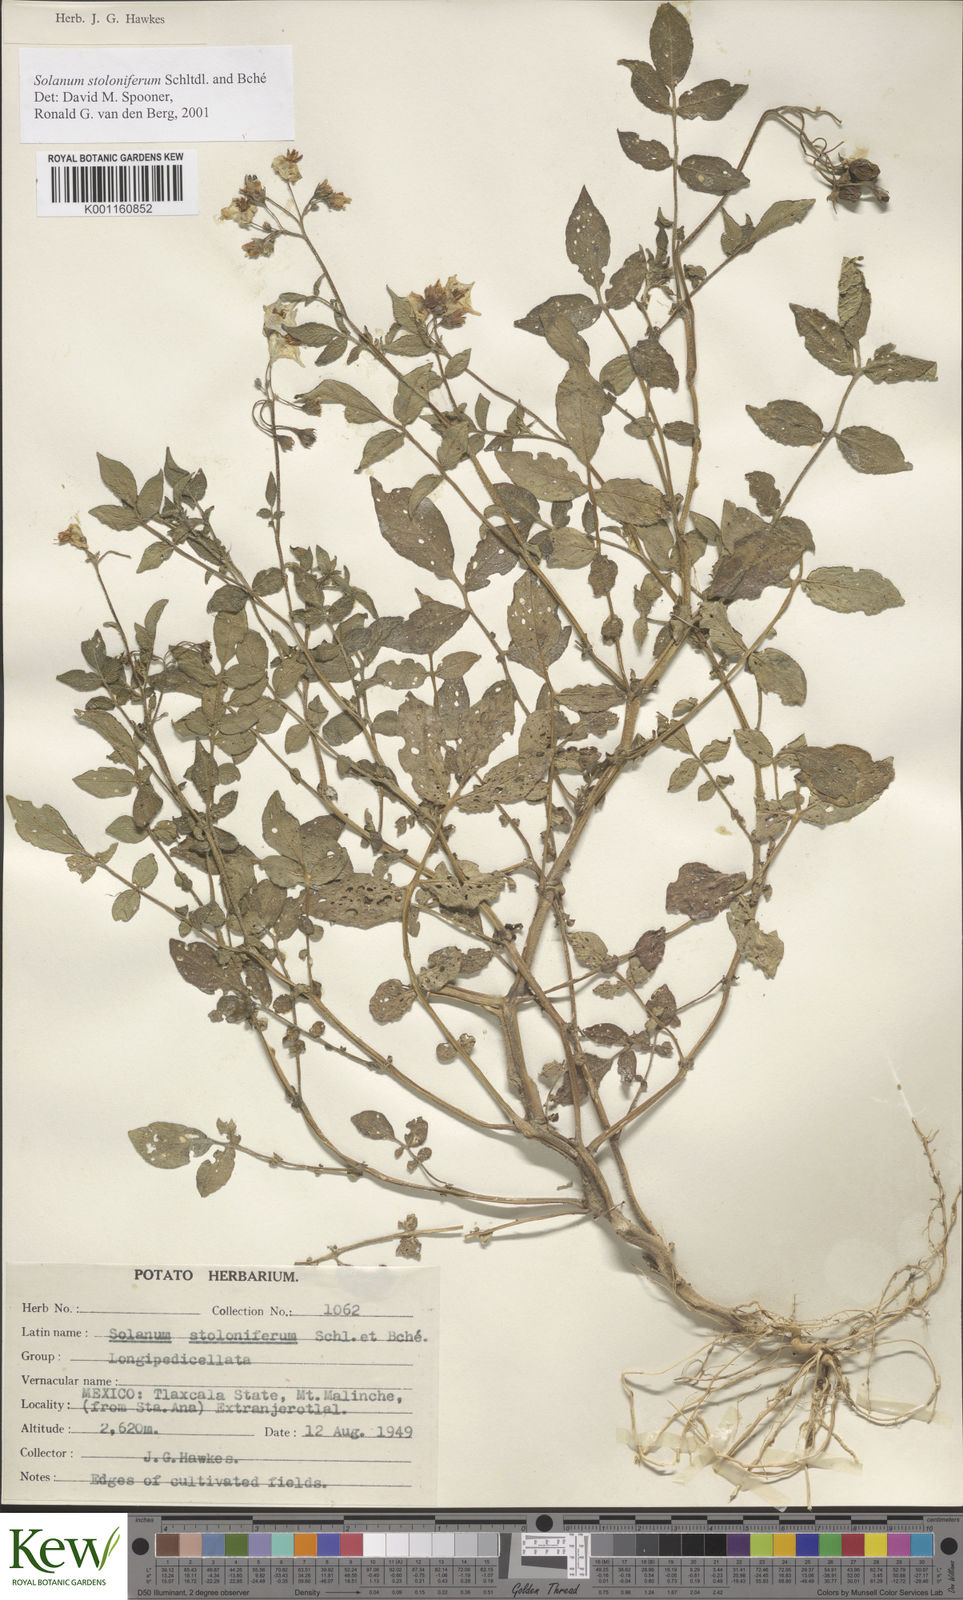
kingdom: Plantae
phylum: Tracheophyta
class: Magnoliopsida
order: Solanales
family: Solanaceae
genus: Solanum
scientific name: Solanum stoloniferum
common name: Fendler's nighshade
